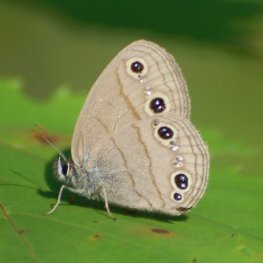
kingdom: Animalia
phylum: Arthropoda
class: Insecta
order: Lepidoptera
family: Nymphalidae
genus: Euptychia
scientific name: Euptychia cymela
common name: Little Wood Satyr
